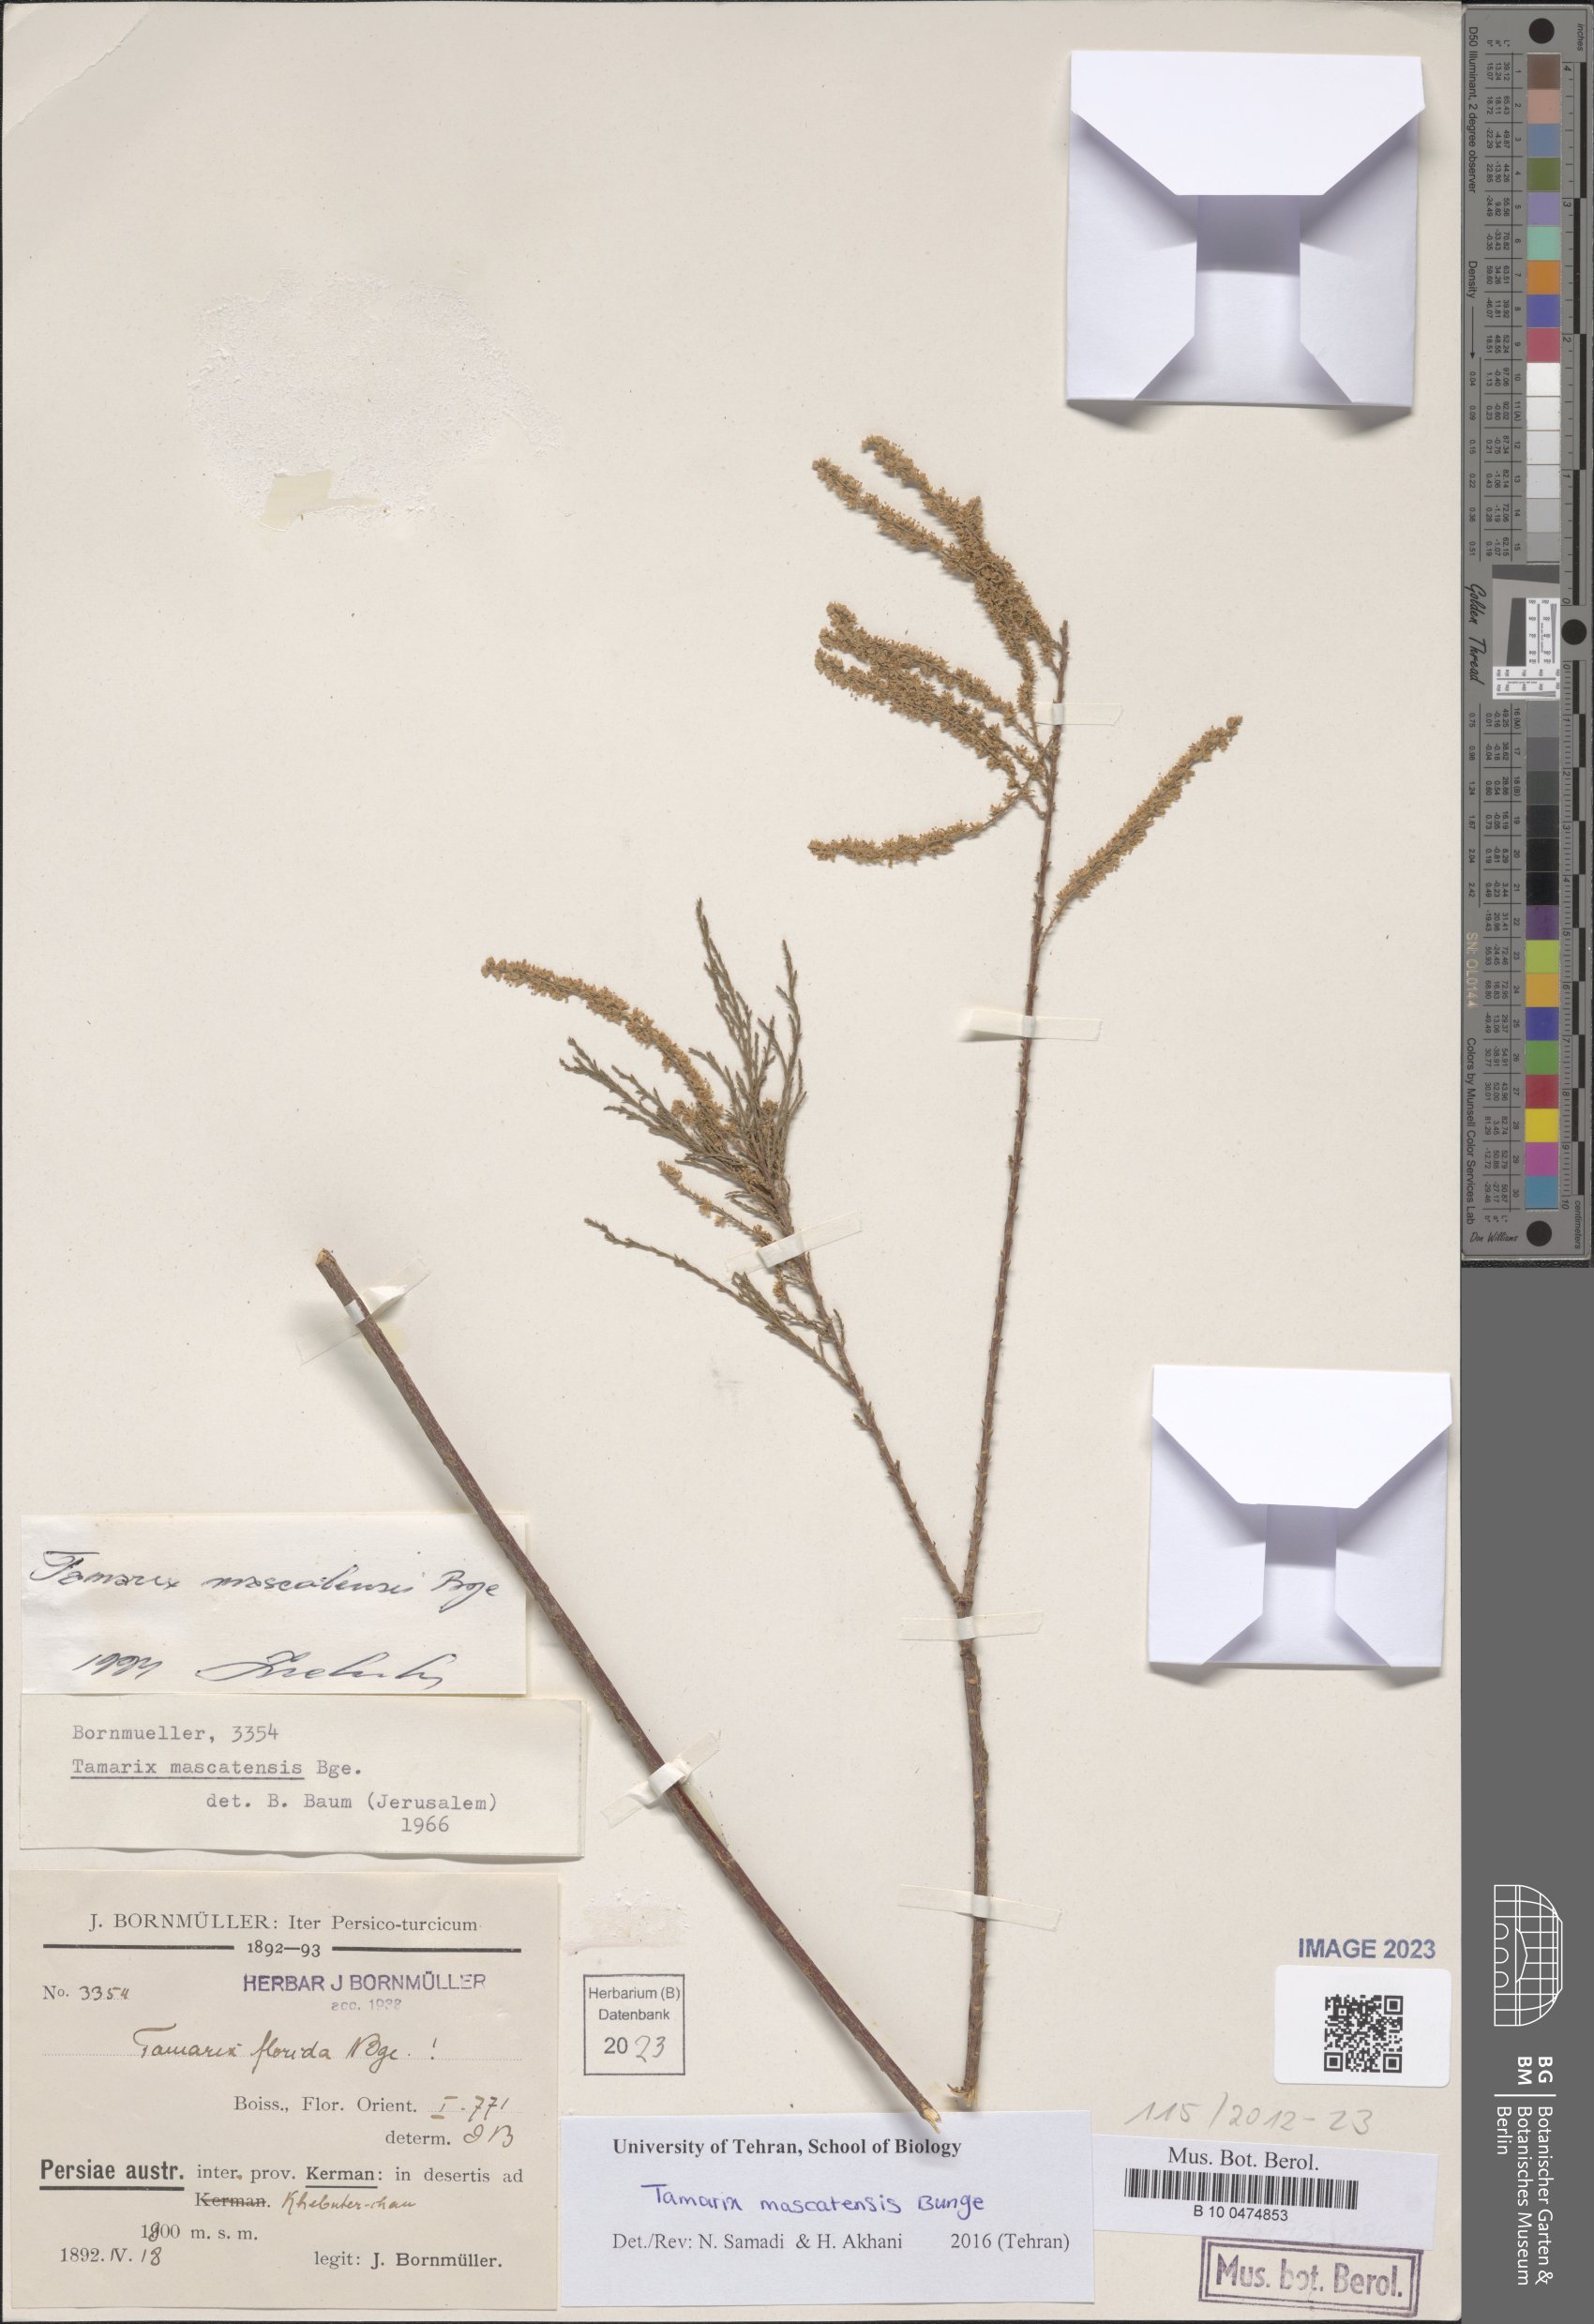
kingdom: Plantae
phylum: Tracheophyta
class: Magnoliopsida
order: Caryophyllales
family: Tamaricaceae
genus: Tamarix
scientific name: Tamarix mascatensis
